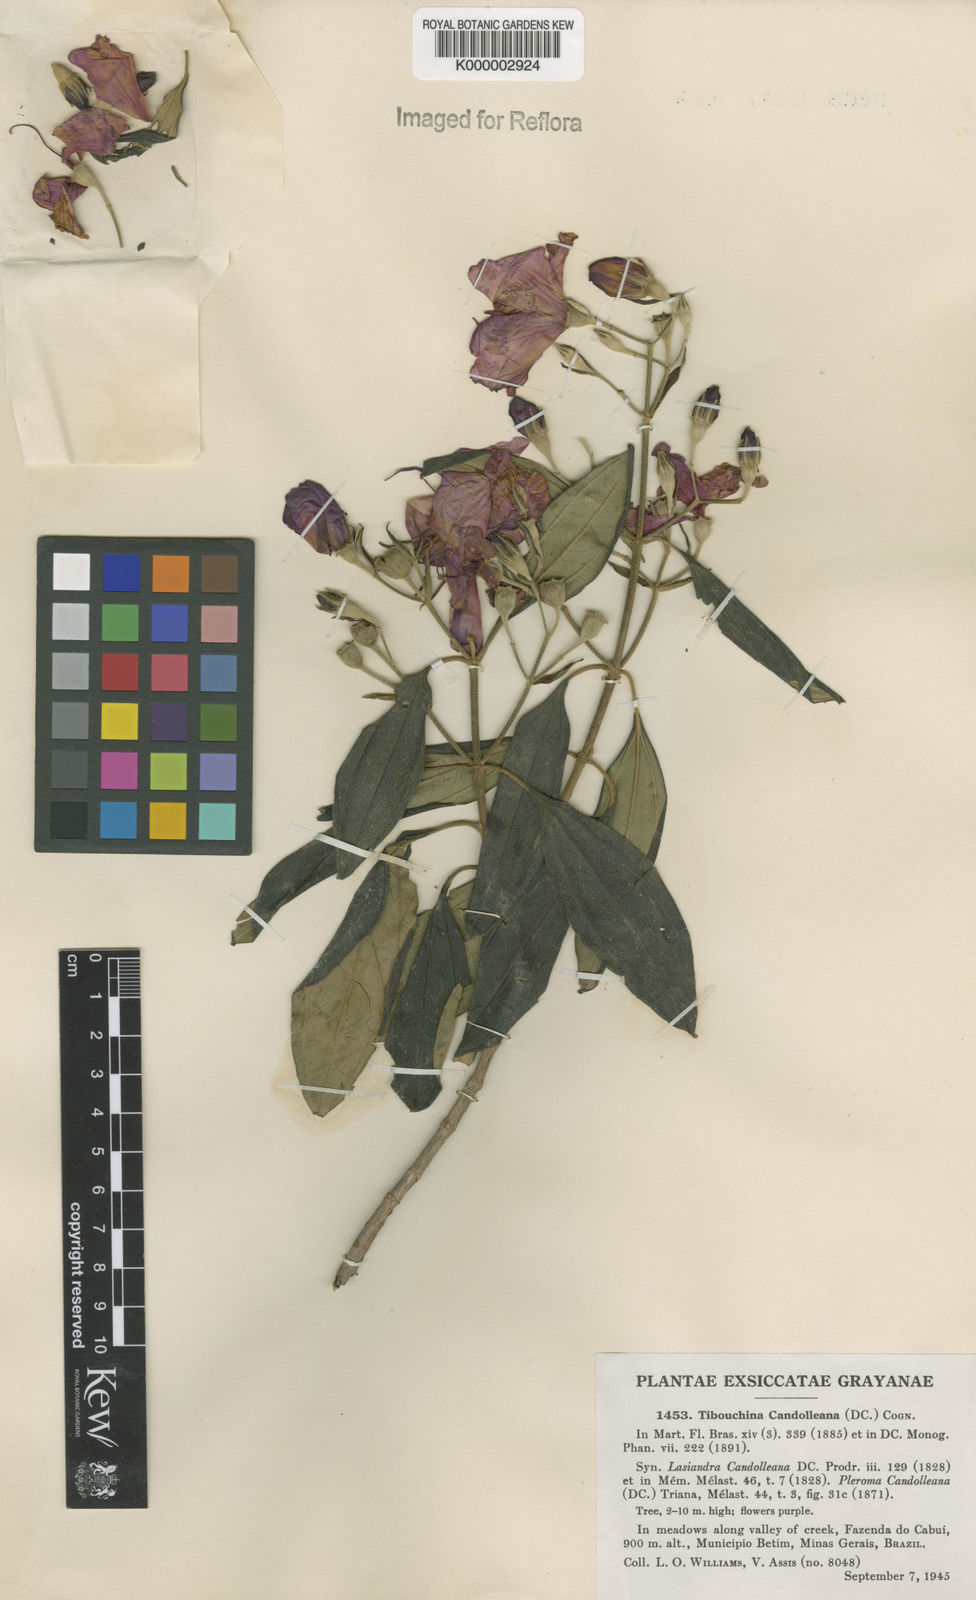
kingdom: Plantae
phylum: Tracheophyta
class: Magnoliopsida
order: Myrtales
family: Melastomataceae
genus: Pleroma
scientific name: Pleroma candolleanum
